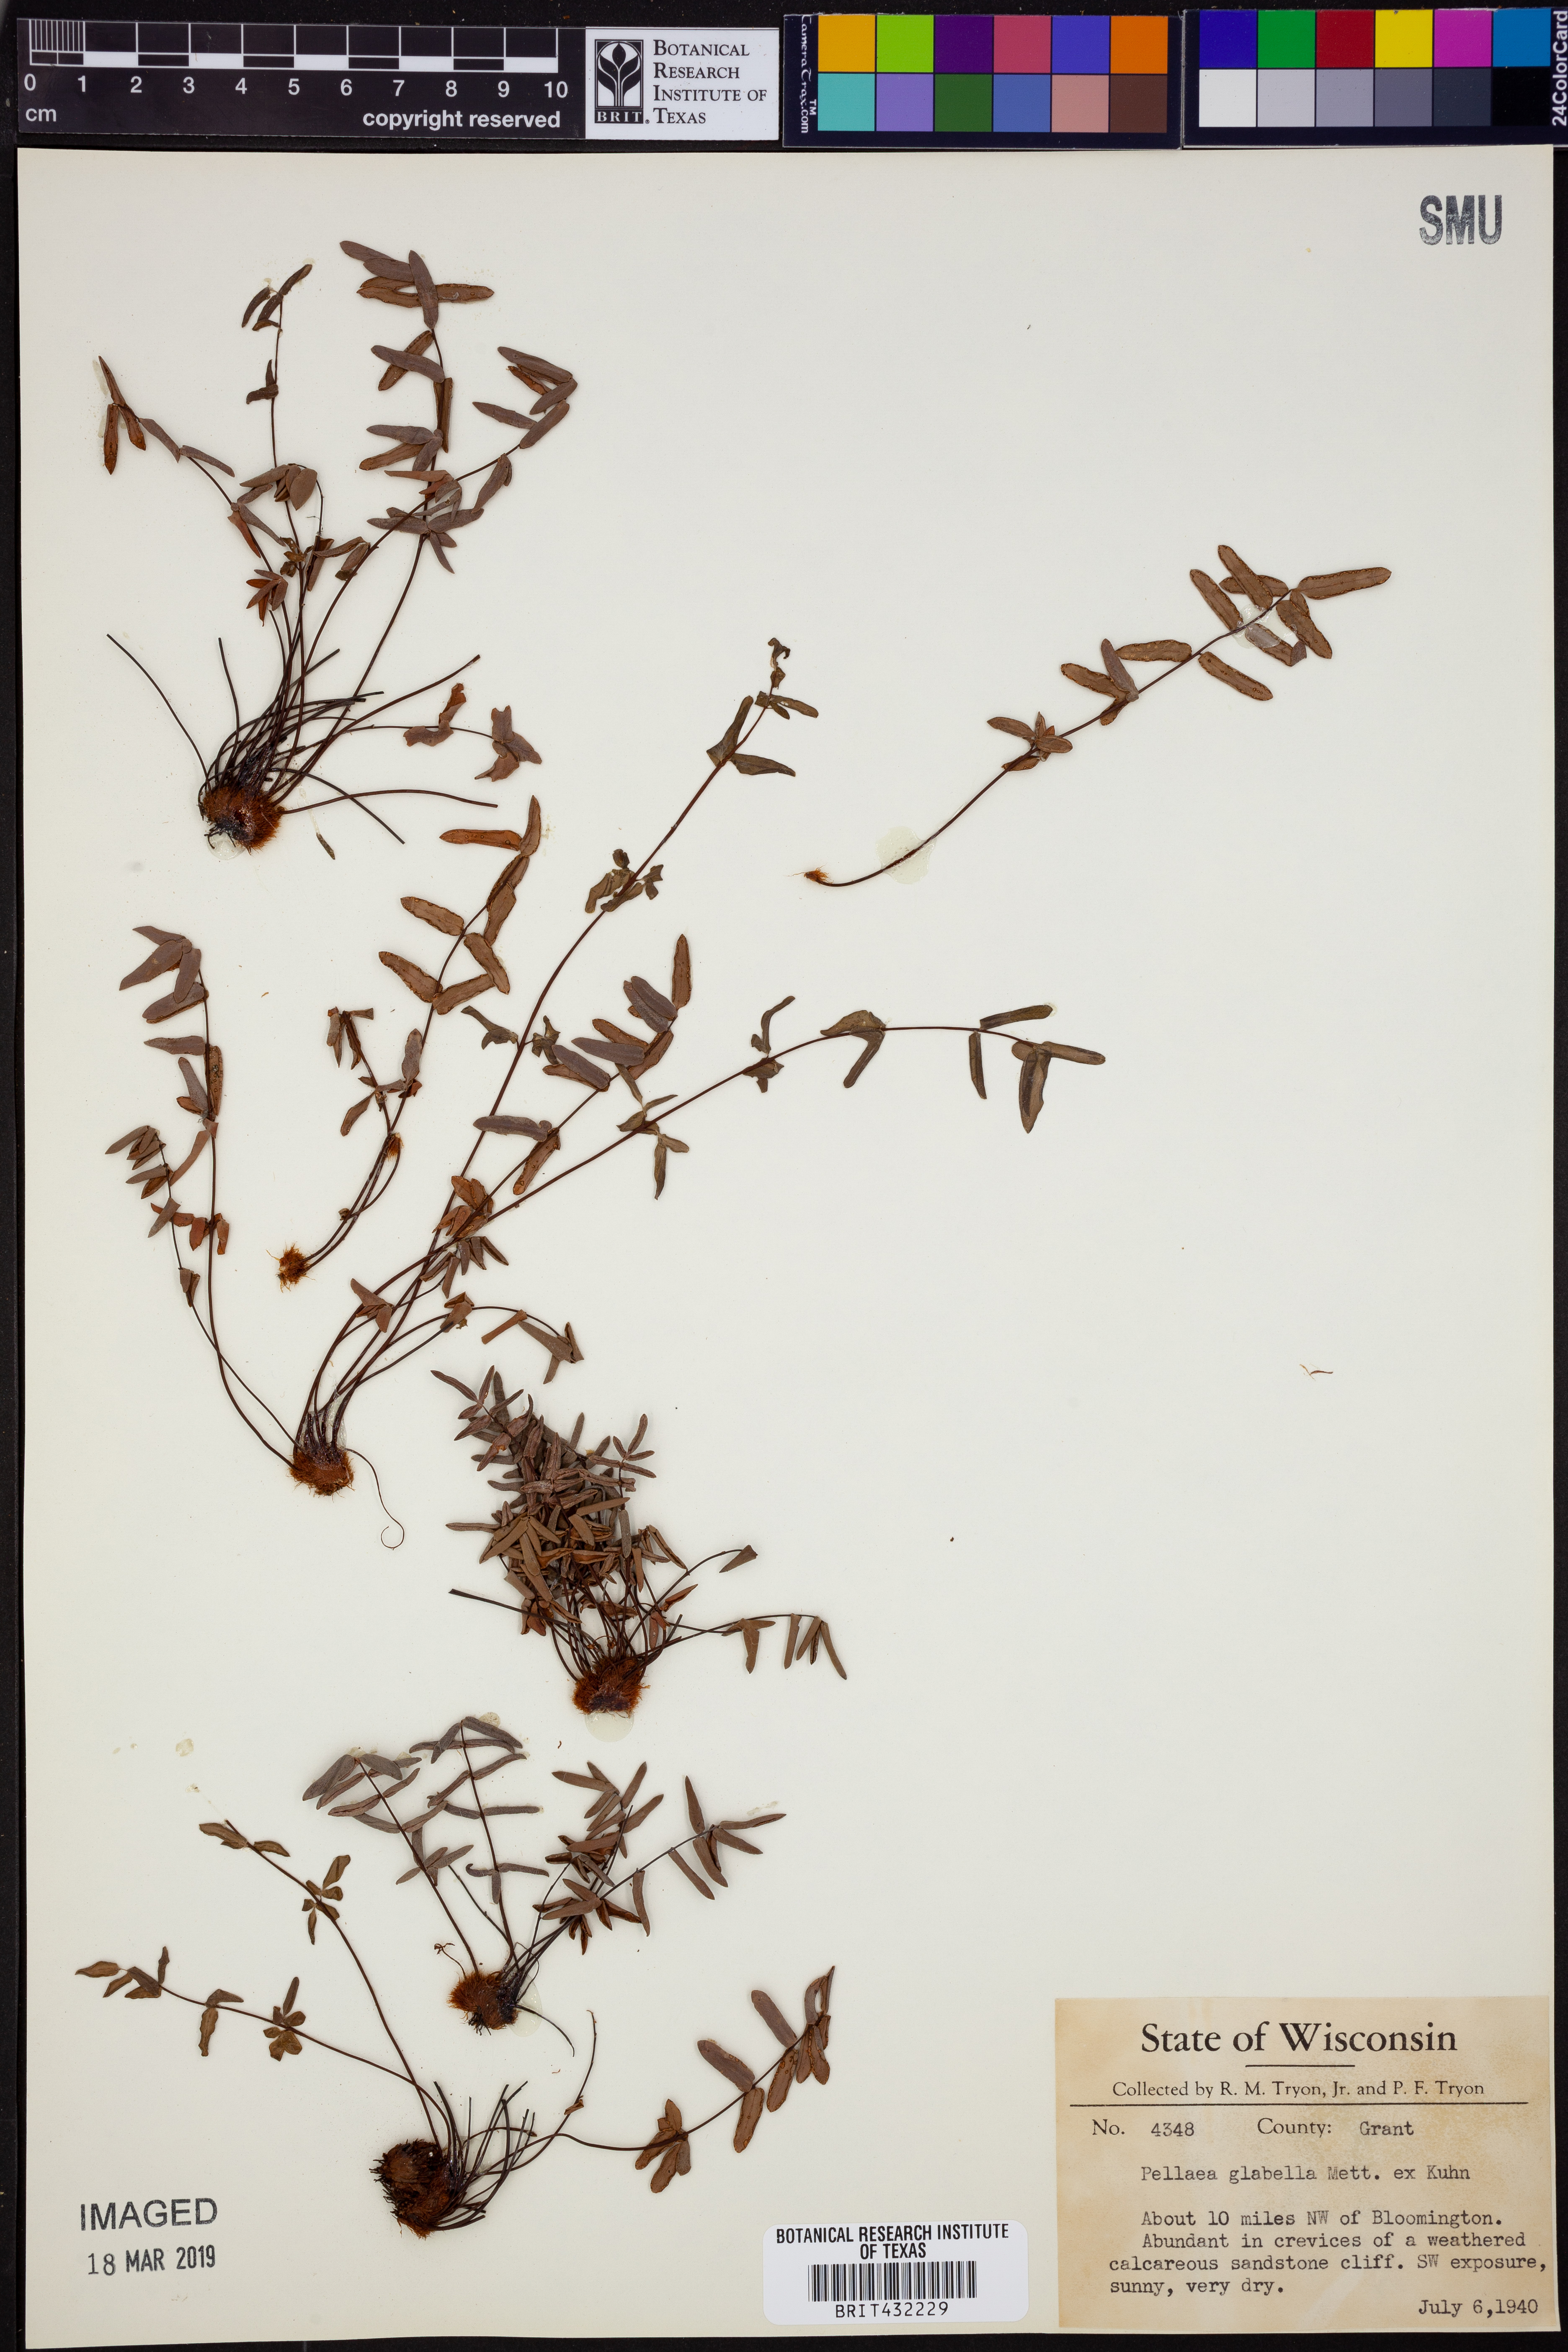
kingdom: Plantae
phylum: Tracheophyta
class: Polypodiopsida
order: Polypodiales
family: Pteridaceae
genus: Pellaea
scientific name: Pellaea glabella
